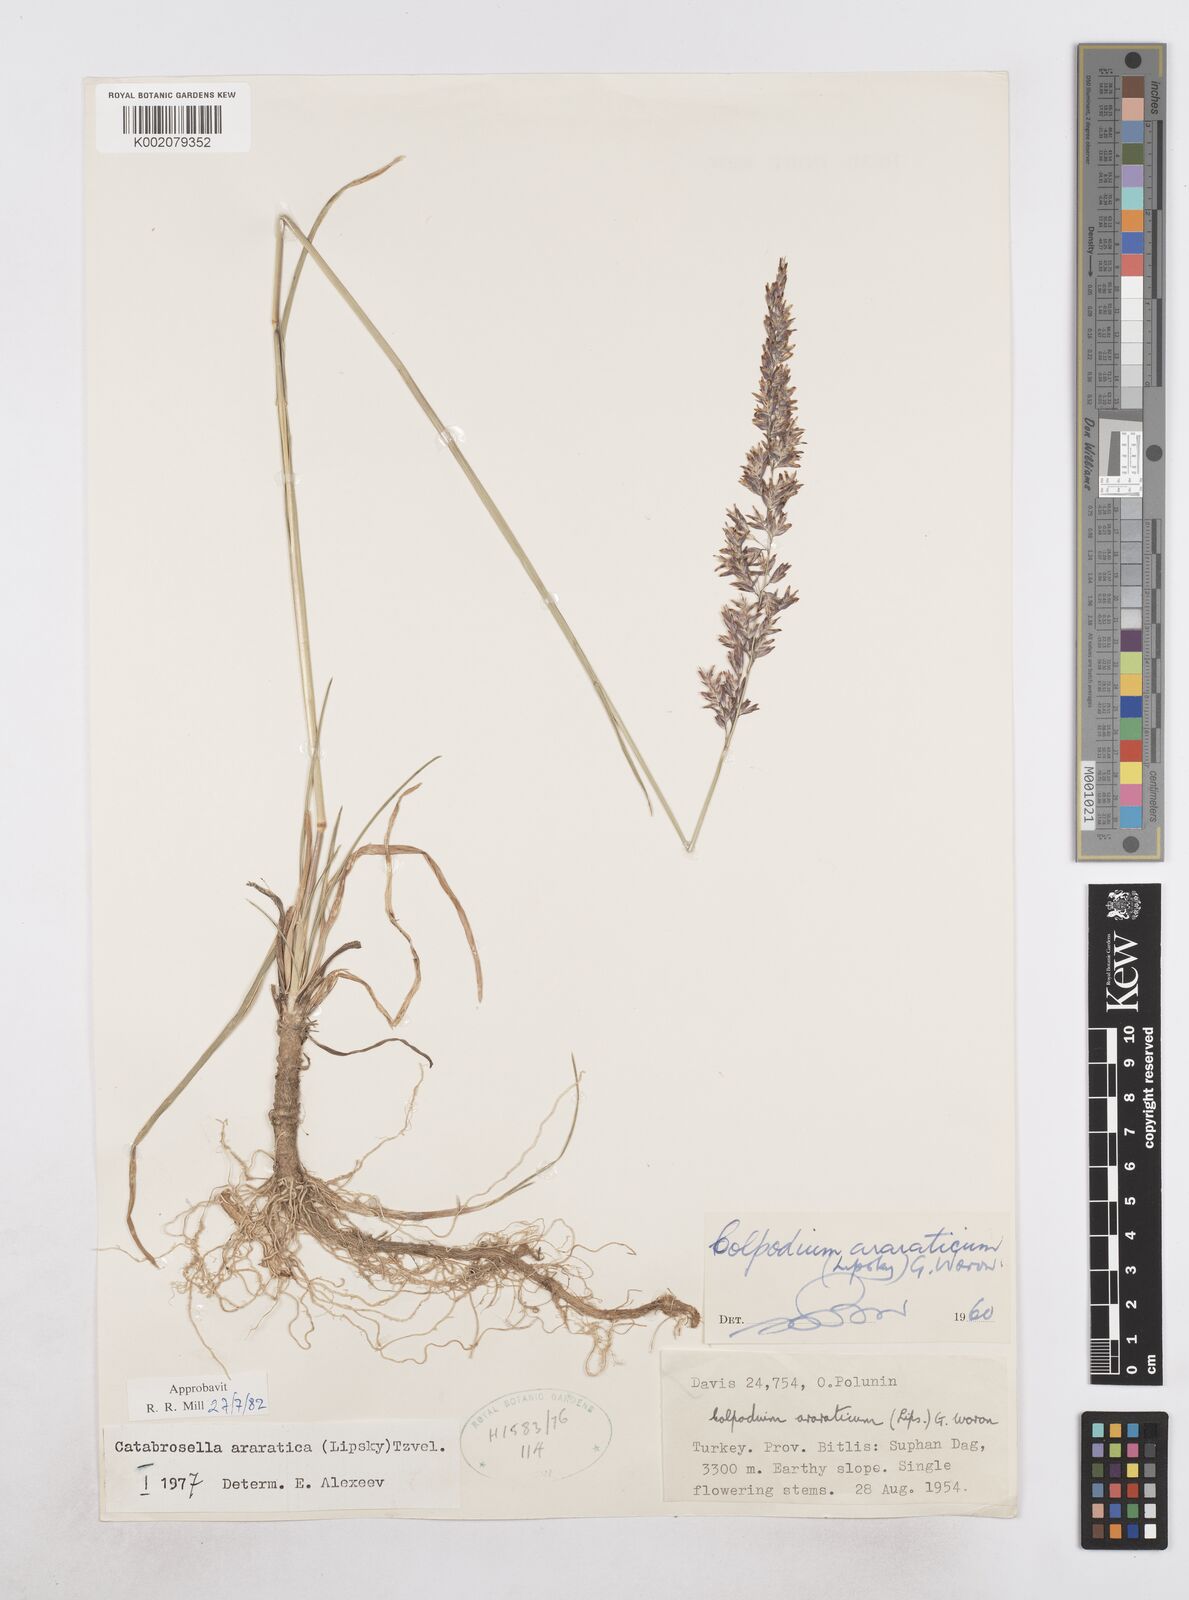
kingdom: Plantae
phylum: Tracheophyta
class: Liliopsida
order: Poales
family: Poaceae
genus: Hyalopodium
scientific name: Hyalopodium araraticum
